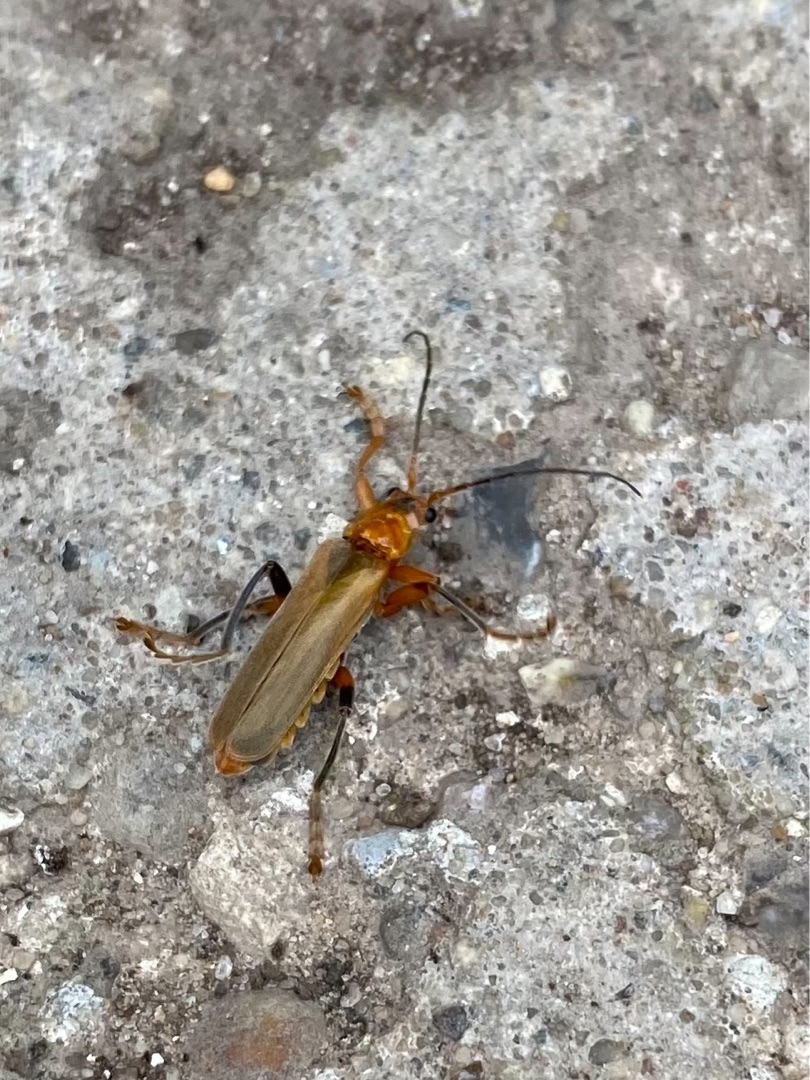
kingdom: Animalia
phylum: Arthropoda
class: Insecta
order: Coleoptera
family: Cantharidae
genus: Cantharis
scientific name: Cantharis livida
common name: Gul blødvinge
